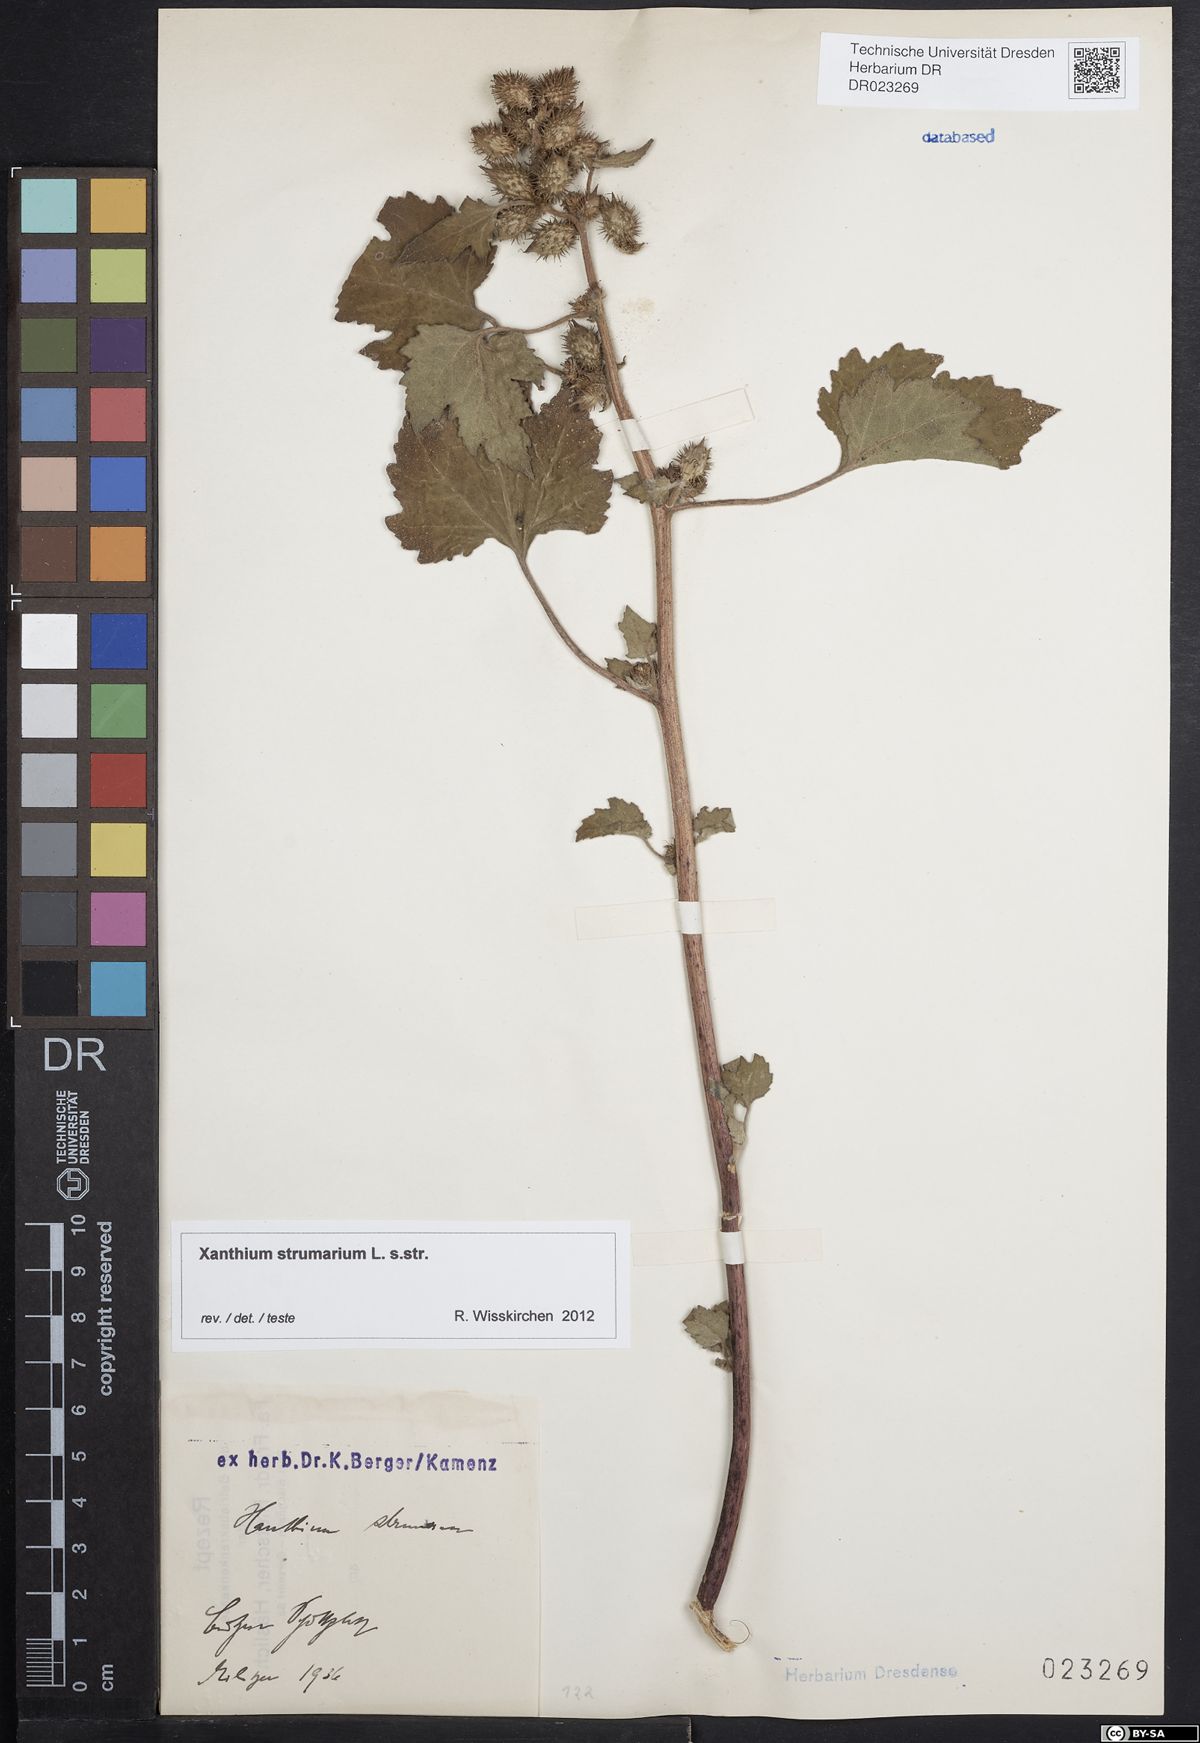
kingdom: Plantae
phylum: Tracheophyta
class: Magnoliopsida
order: Asterales
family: Asteraceae
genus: Xanthium
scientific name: Xanthium strumarium
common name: Rough cocklebur
